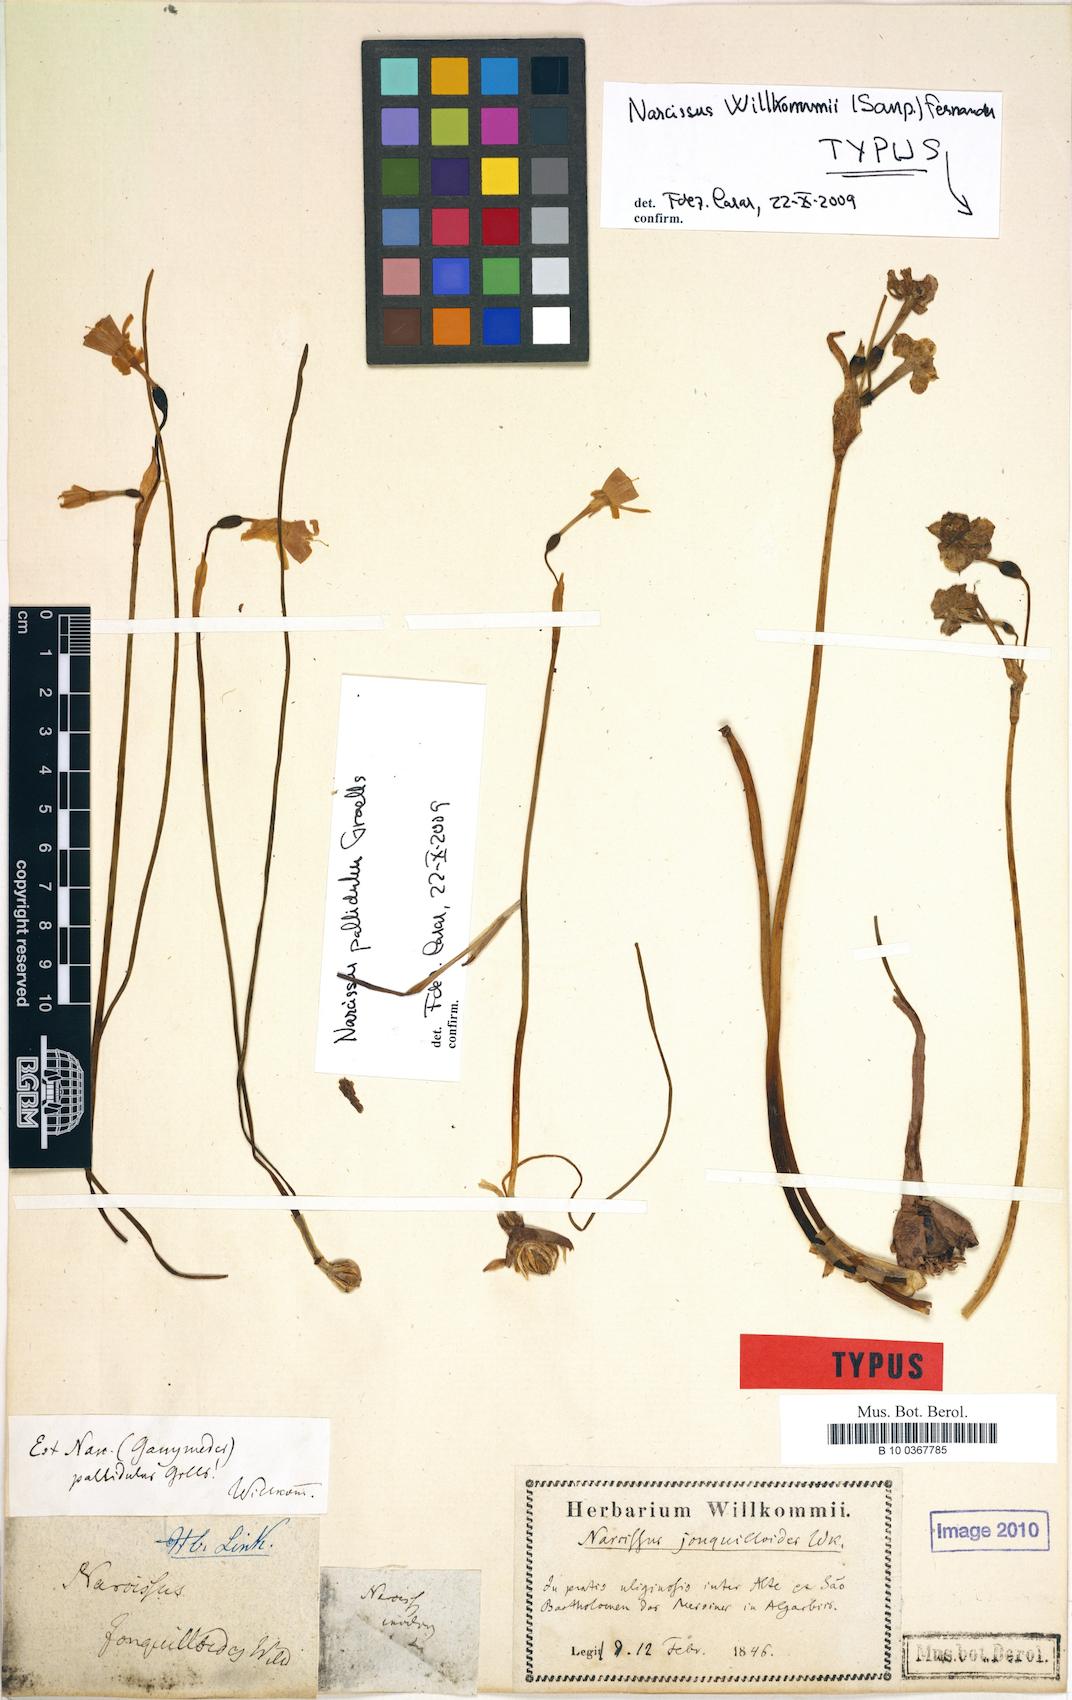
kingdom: Plantae
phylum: Tracheophyta
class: Liliopsida
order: Asparagales
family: Amaryllidaceae
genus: Narcissus
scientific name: Narcissus willkommii
